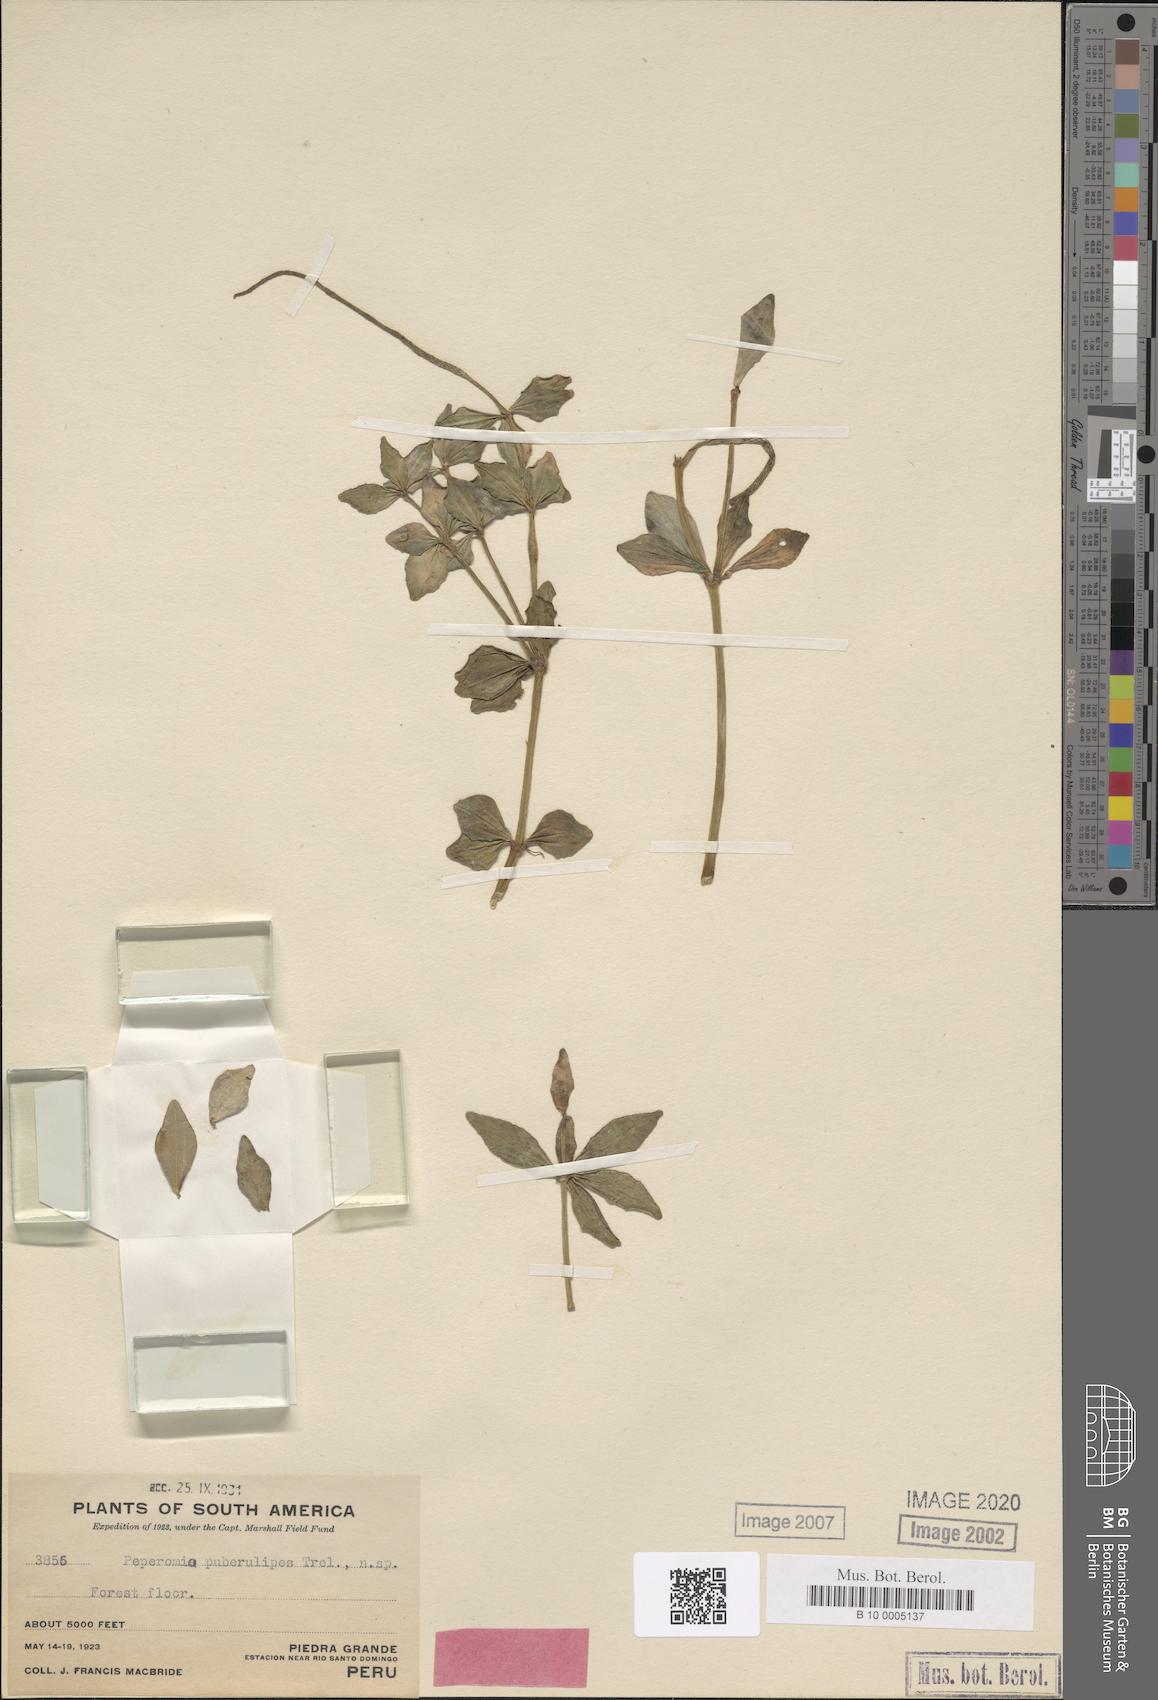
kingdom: Plantae
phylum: Tracheophyta
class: Magnoliopsida
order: Piperales
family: Piperaceae
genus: Peperomia
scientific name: Peperomia puberulipes
